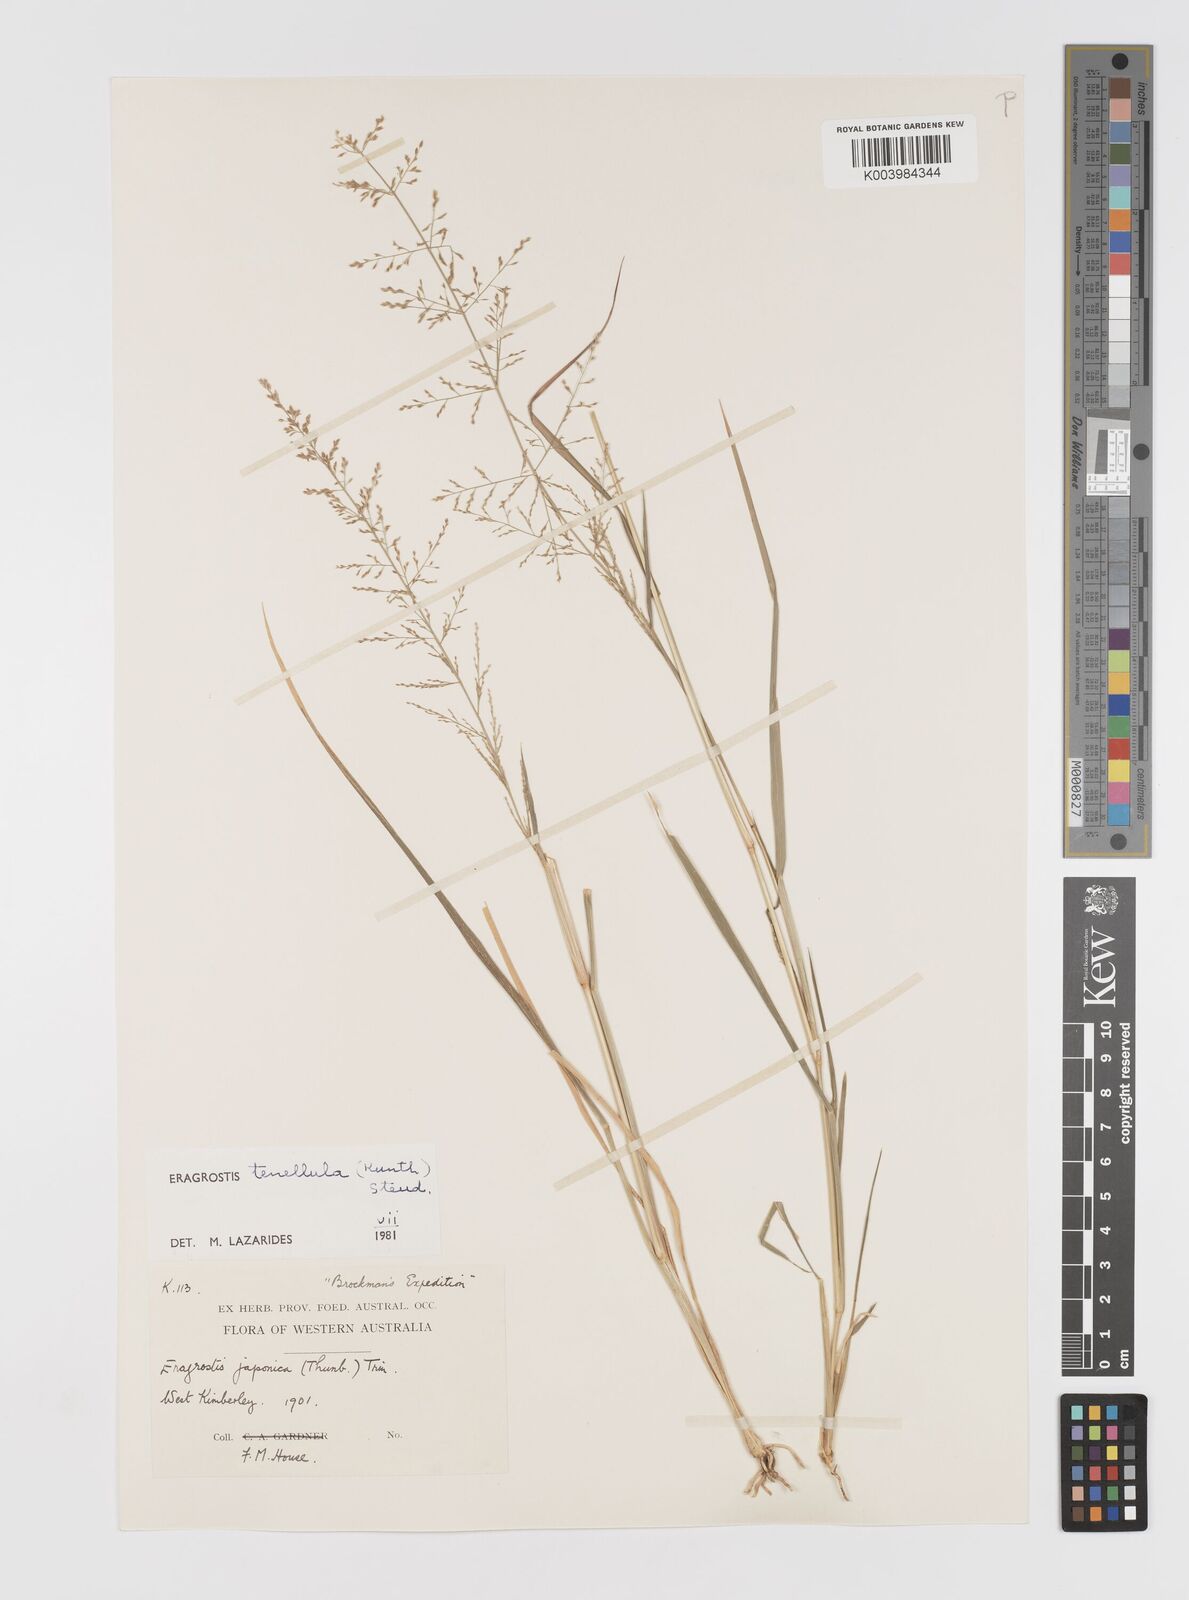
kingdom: Plantae
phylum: Tracheophyta
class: Liliopsida
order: Poales
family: Poaceae
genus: Eragrostis
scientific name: Eragrostis tenellula
